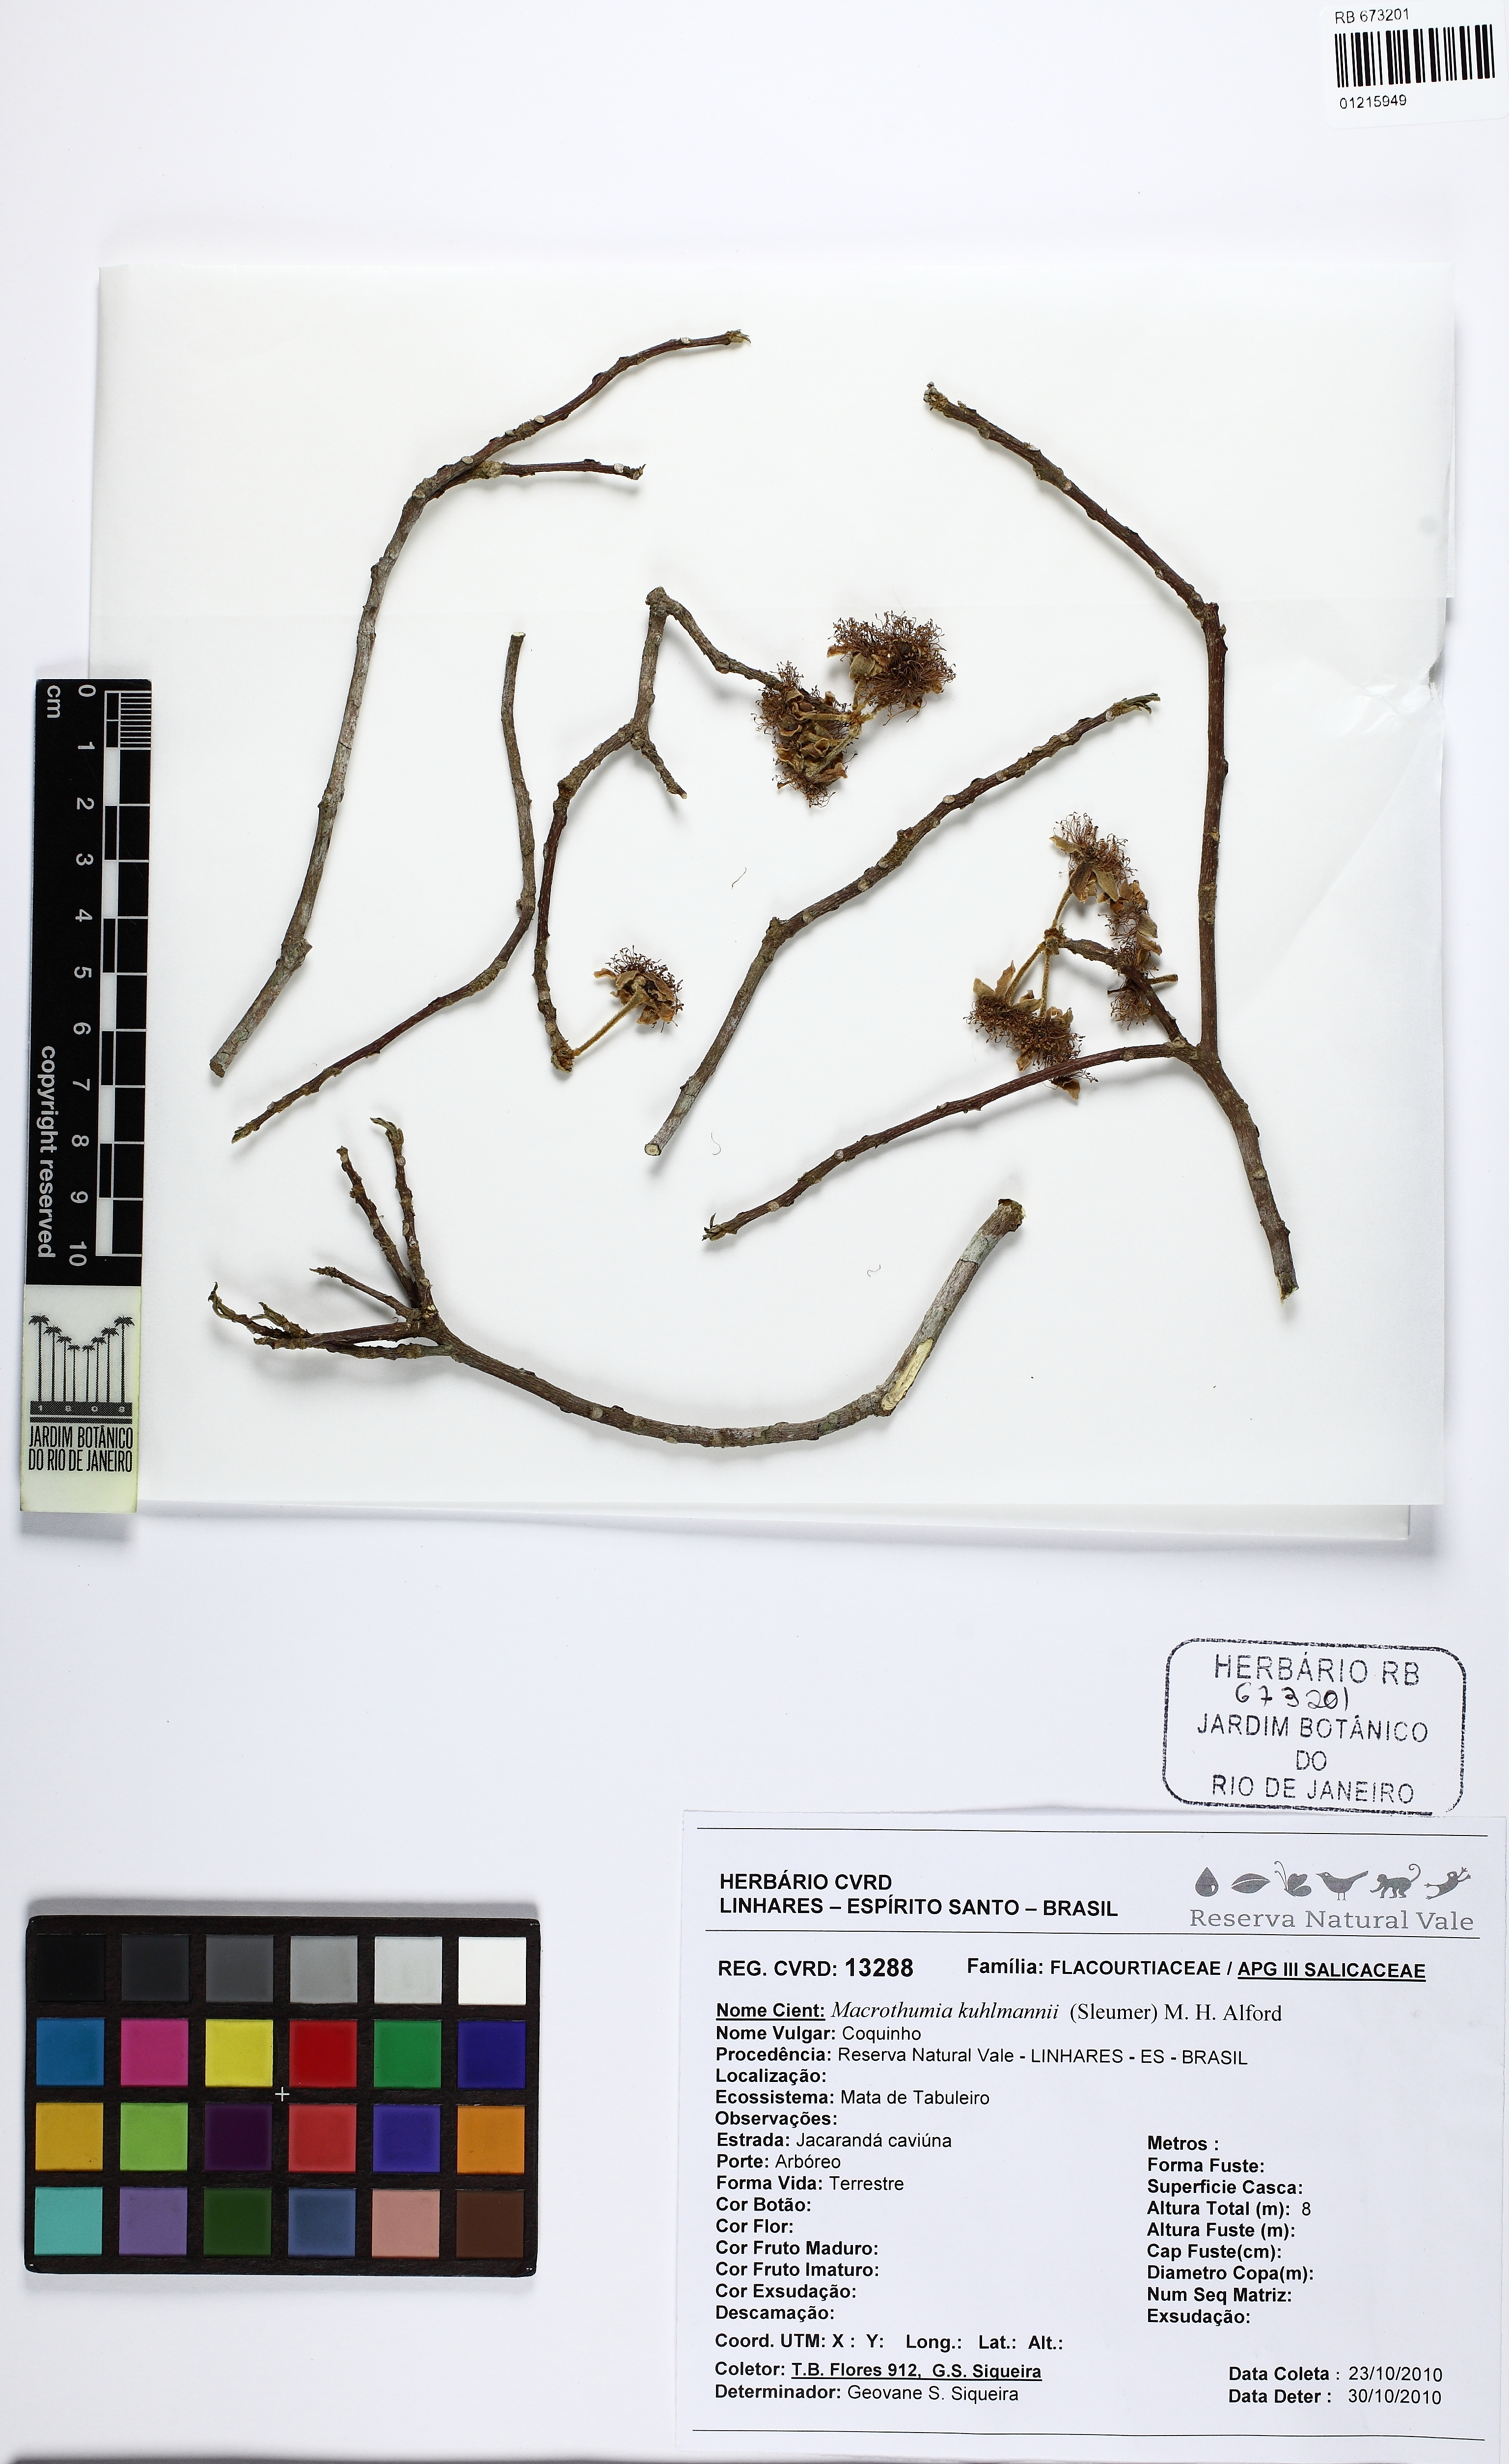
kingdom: Plantae
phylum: Tracheophyta
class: Magnoliopsida
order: Malpighiales
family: Salicaceae
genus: Macrothumia
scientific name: Macrothumia kuhlmannii
